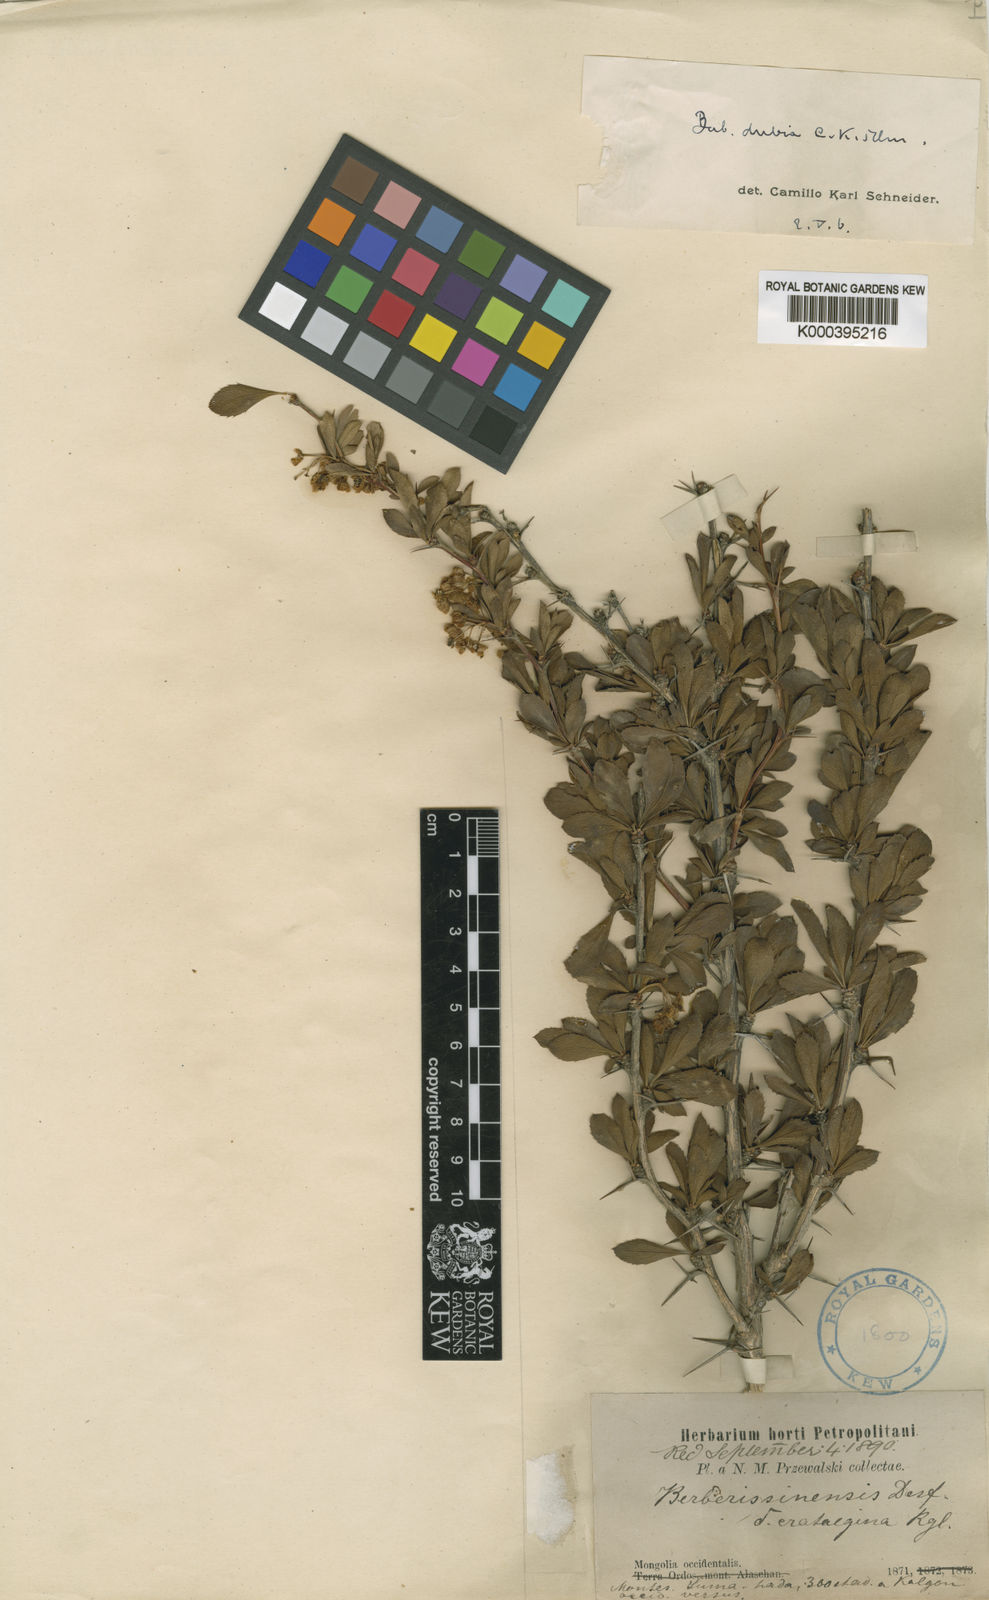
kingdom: Plantae
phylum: Tracheophyta
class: Magnoliopsida
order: Ranunculales
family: Berberidaceae
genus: Berberis
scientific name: Berberis dubia
